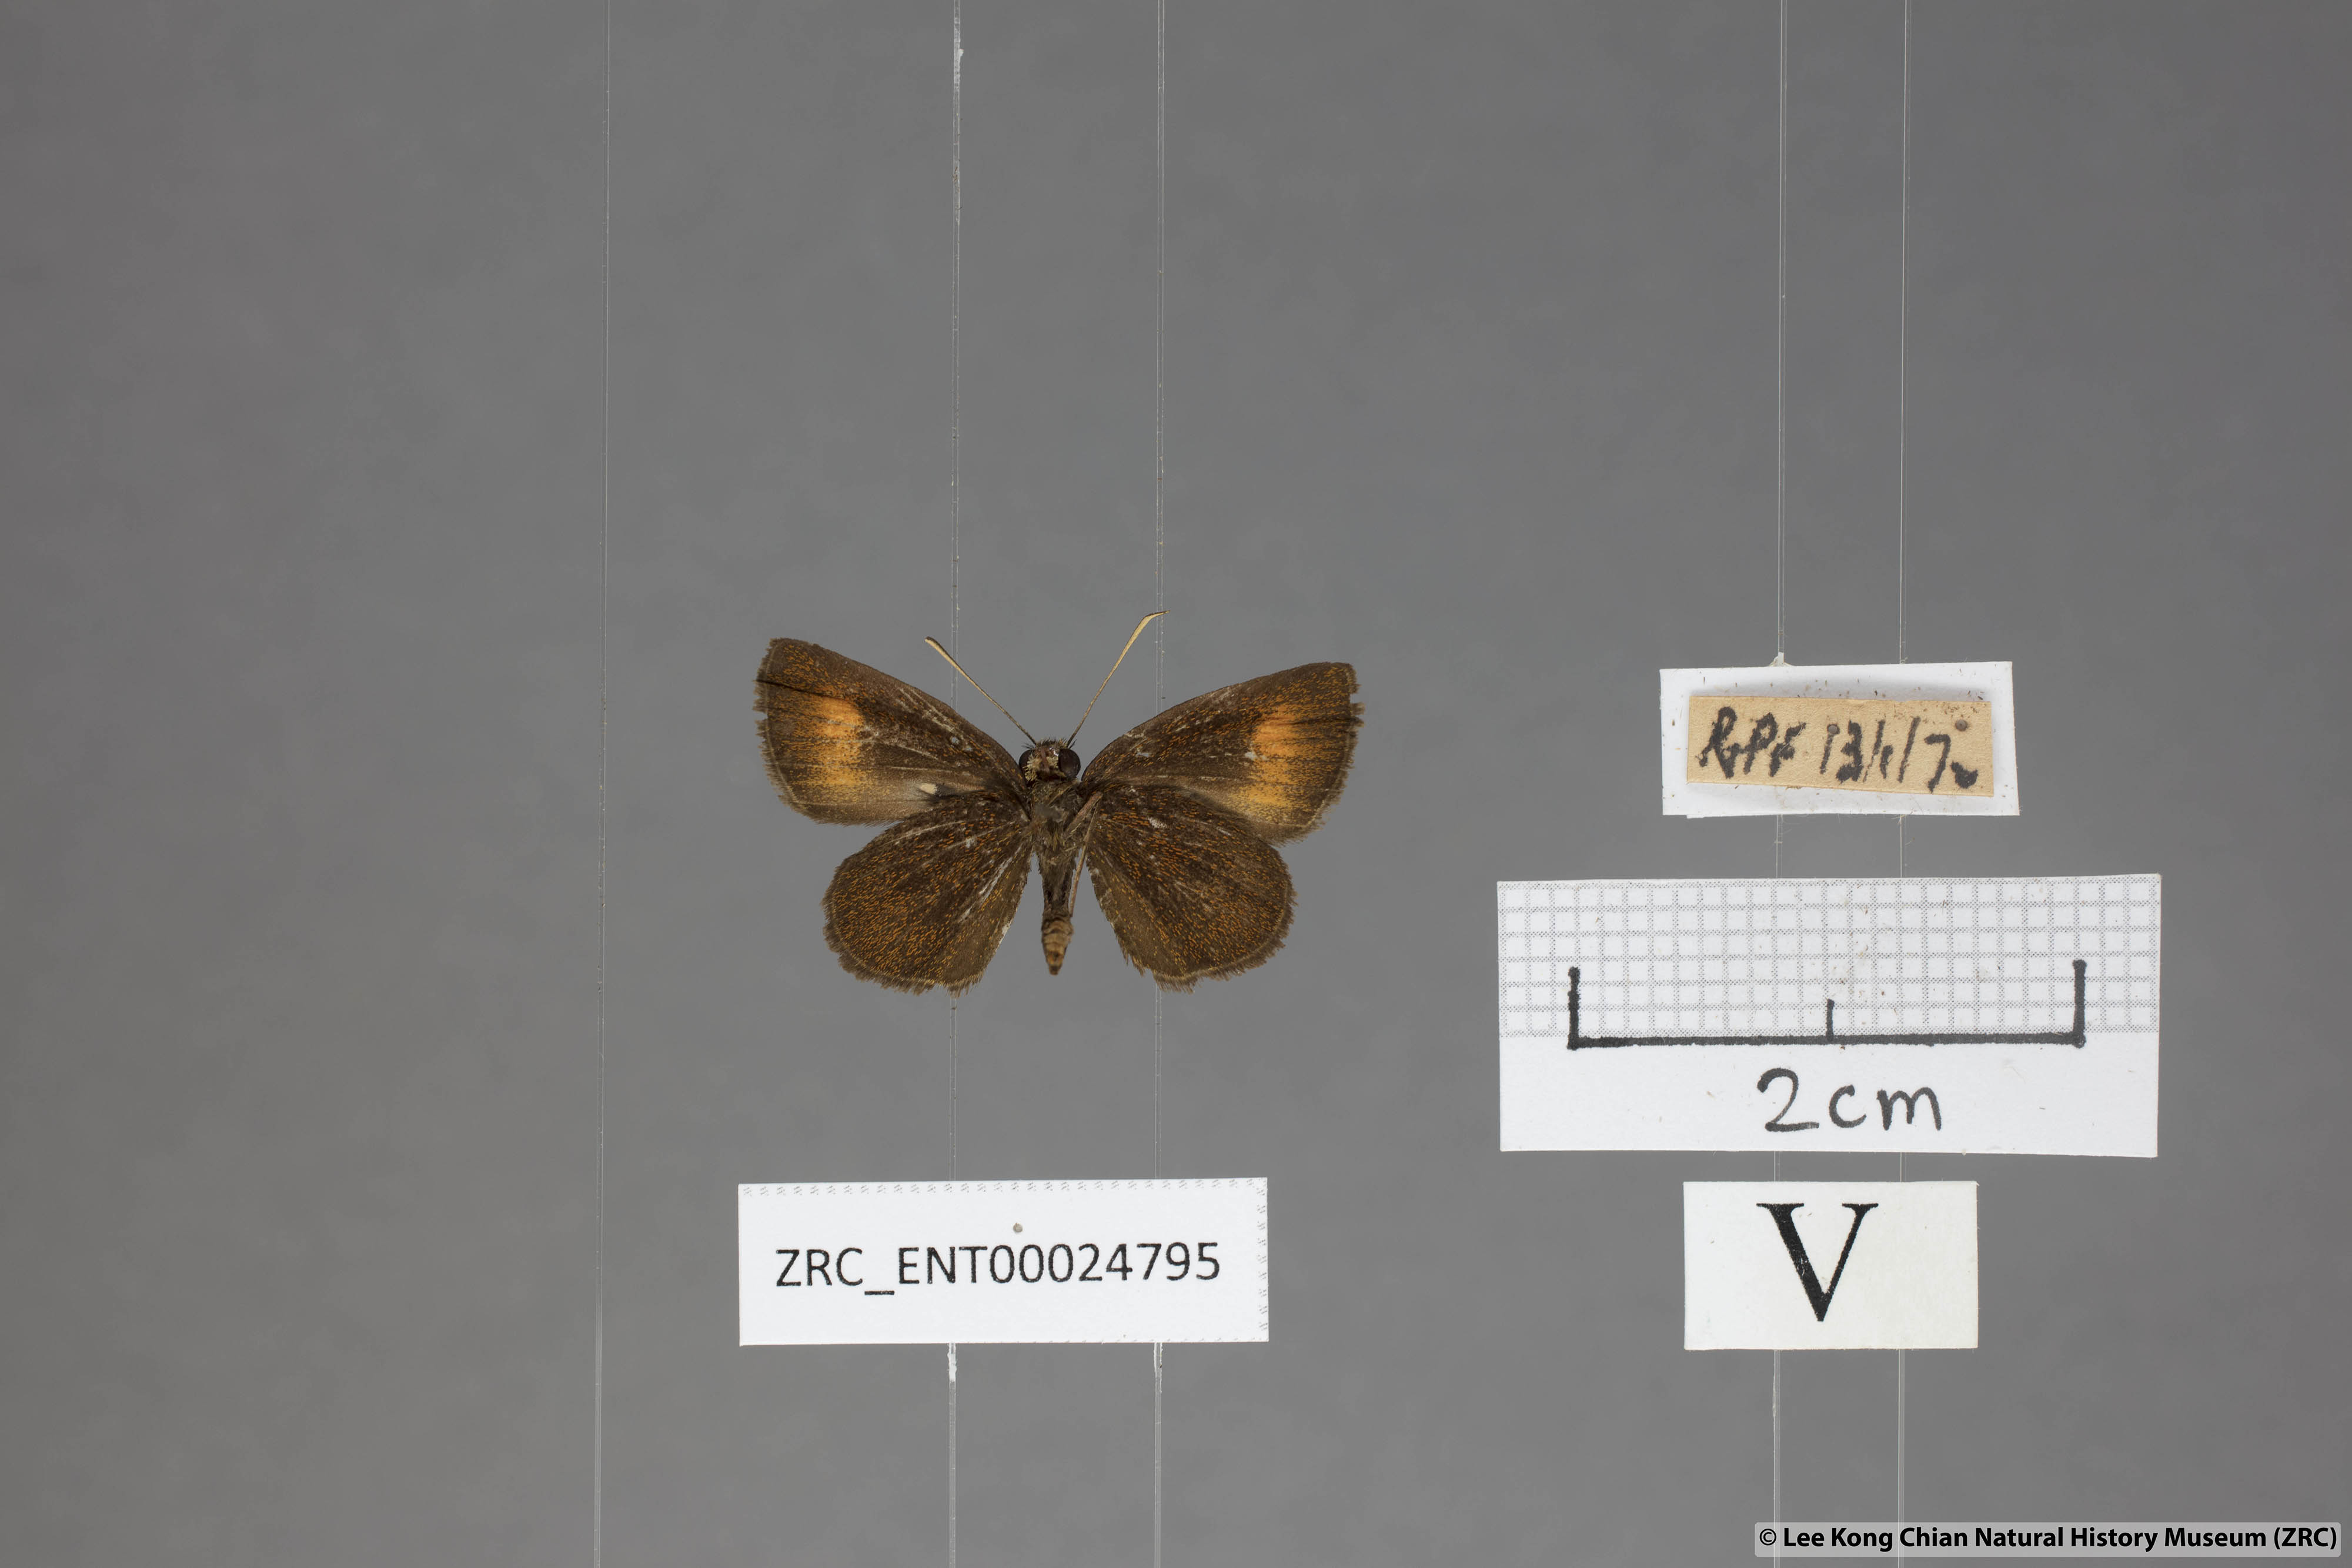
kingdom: Animalia
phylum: Arthropoda
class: Insecta
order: Lepidoptera
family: Hesperiidae
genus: Iambrix
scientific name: Iambrix Idmon obliquans
